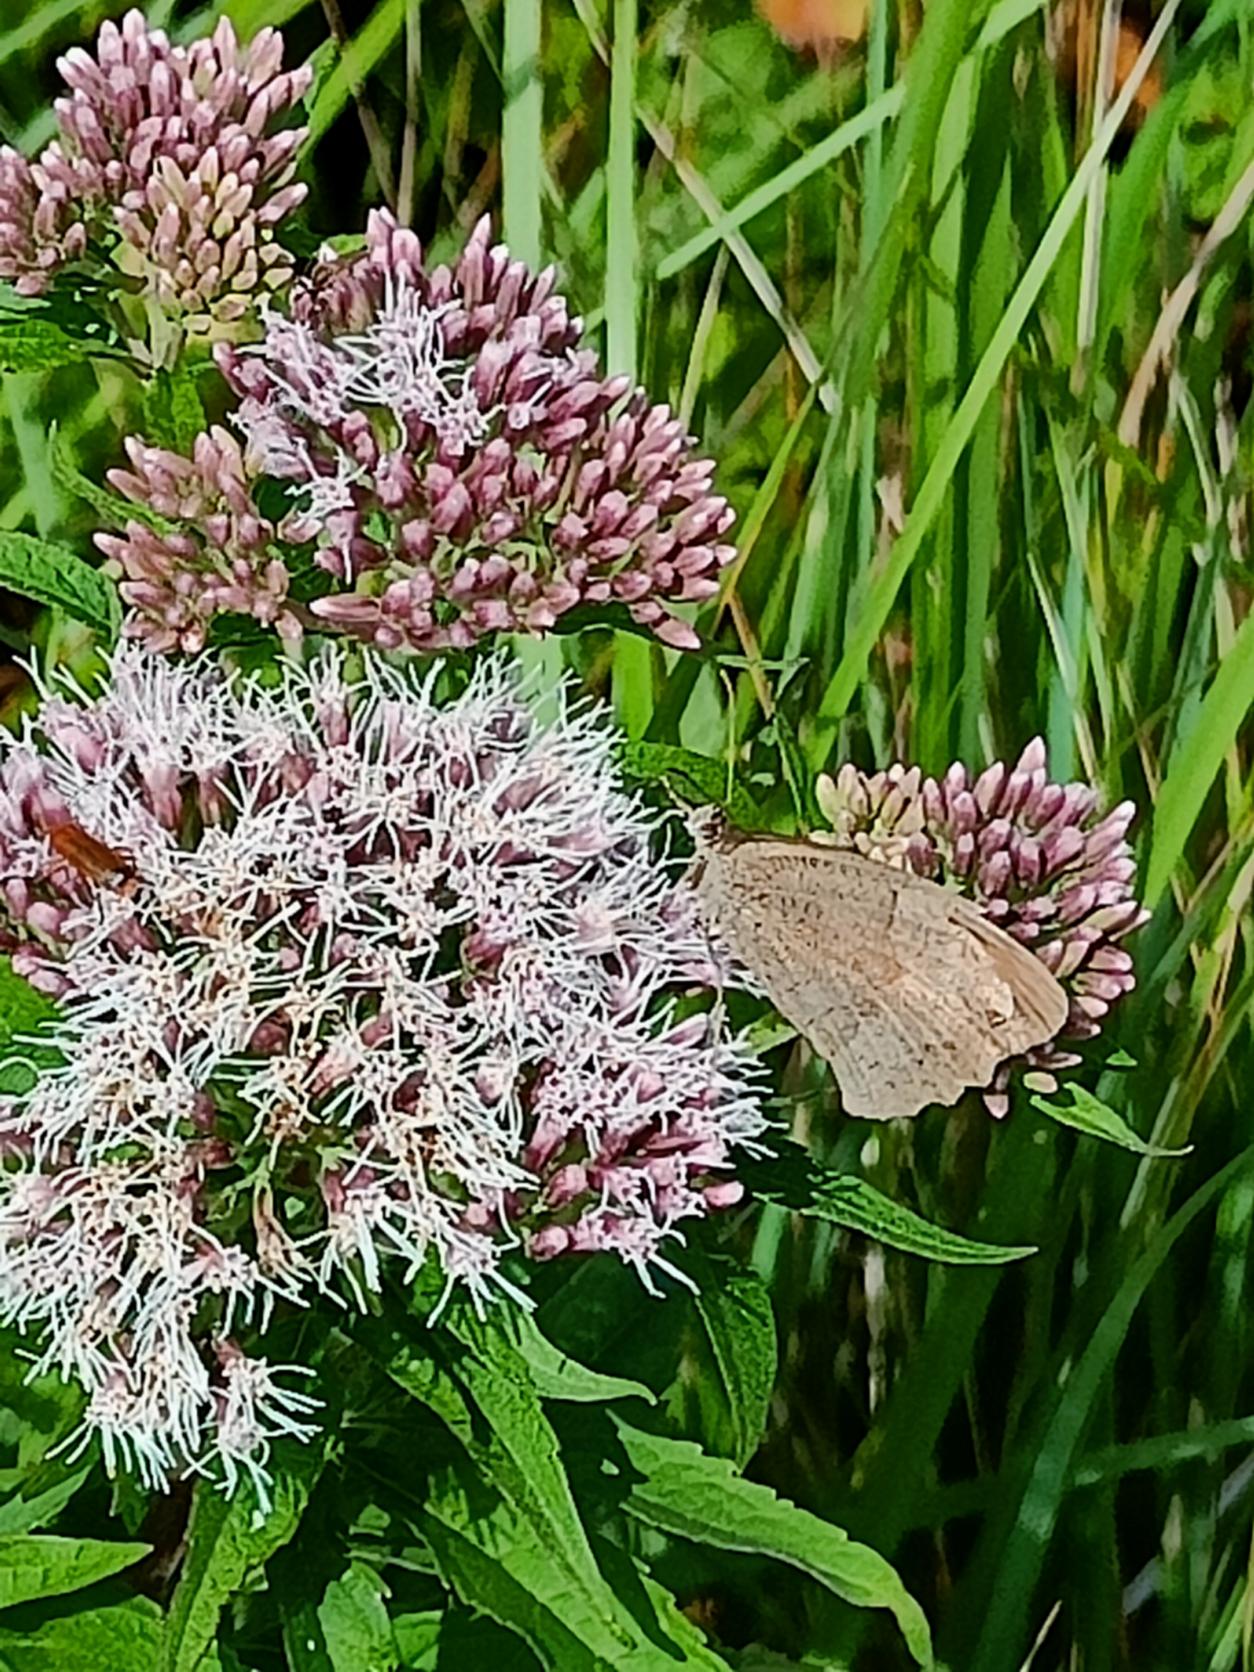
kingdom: Animalia
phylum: Arthropoda
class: Insecta
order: Lepidoptera
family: Nymphalidae
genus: Maniola
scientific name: Maniola jurtina
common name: Græsrandøje
